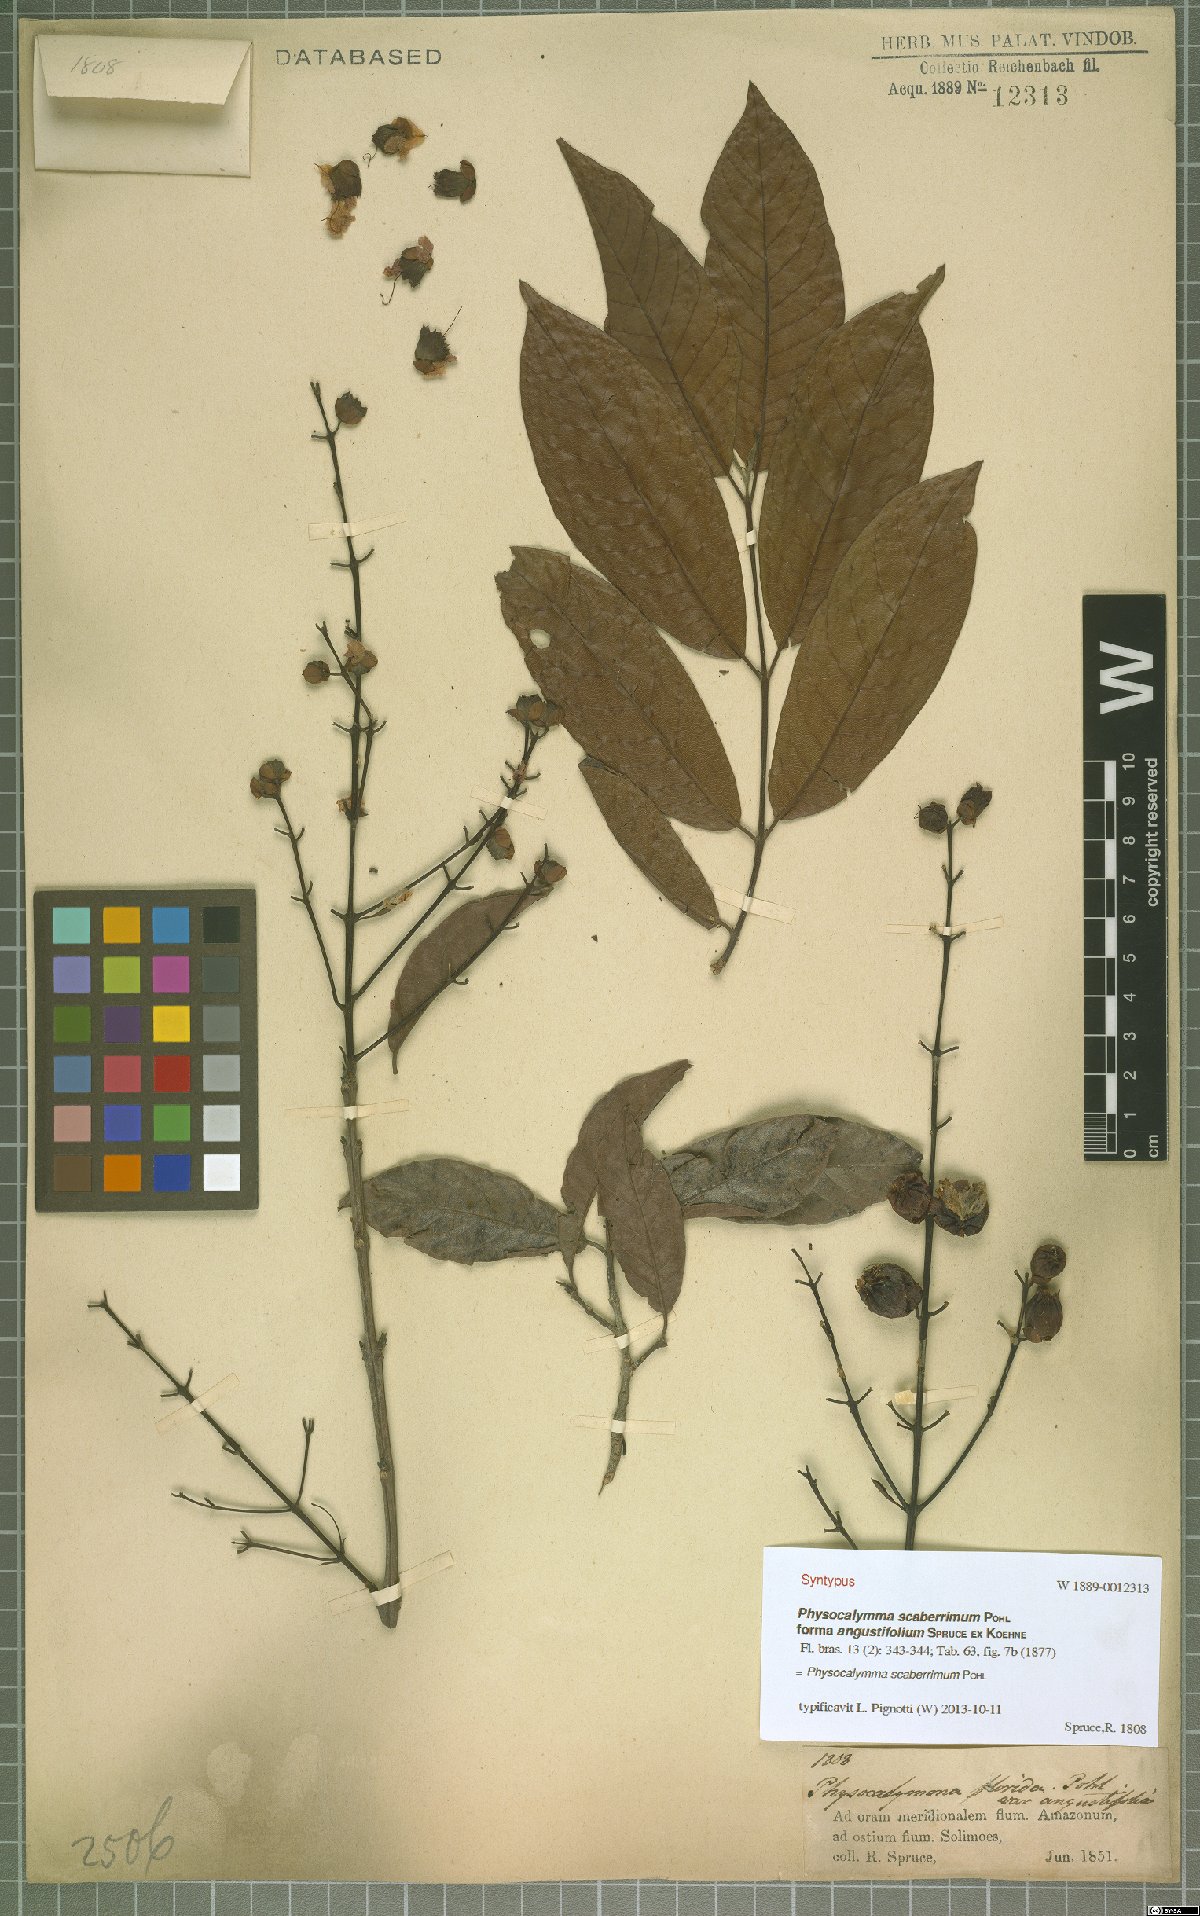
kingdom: Plantae
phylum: Tracheophyta
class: Magnoliopsida
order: Myrtales
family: Lythraceae
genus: Physocalymma
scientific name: Physocalymma scaberrimum
